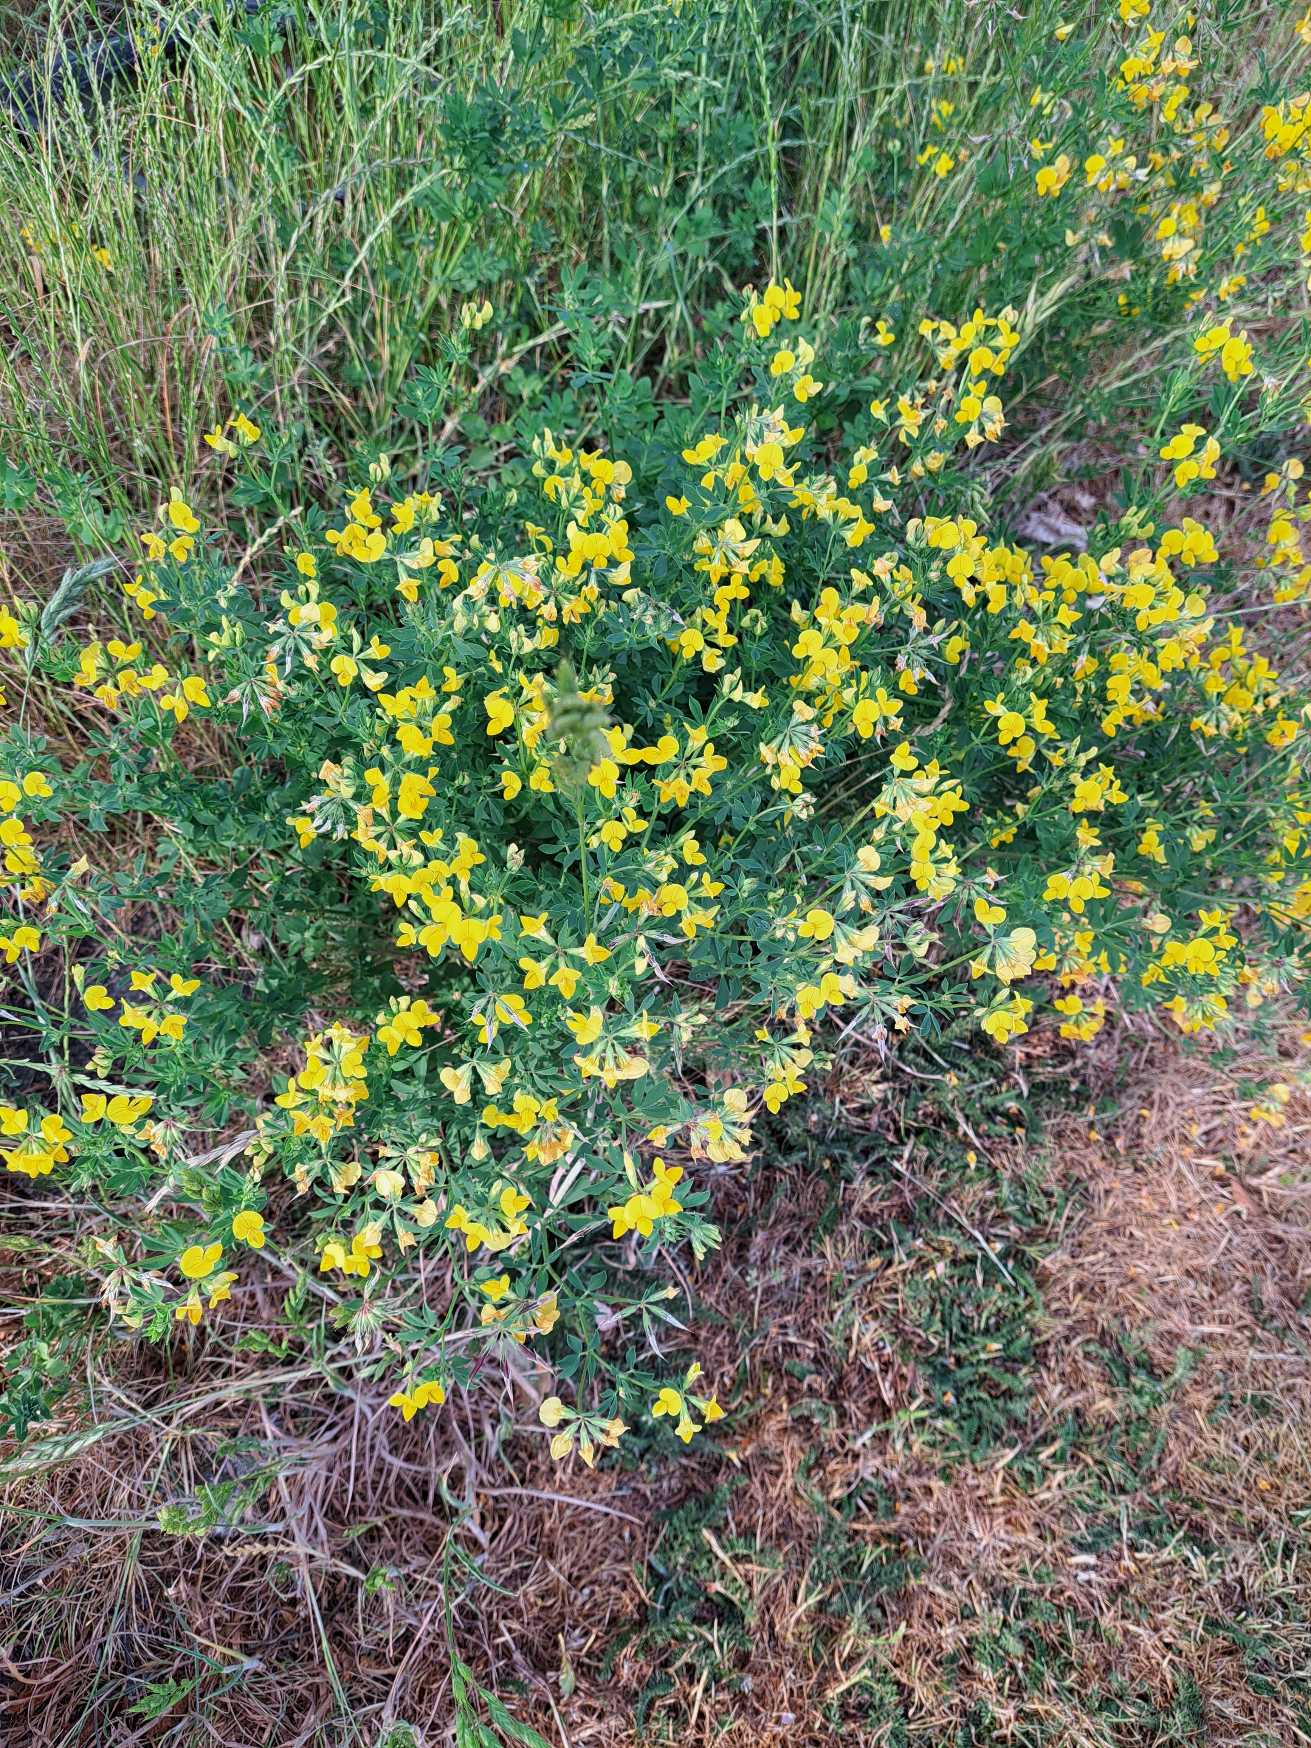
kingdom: Plantae
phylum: Tracheophyta
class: Magnoliopsida
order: Fabales
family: Fabaceae
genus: Lotus
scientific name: Lotus corniculatus
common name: Almindelig kællingetand
